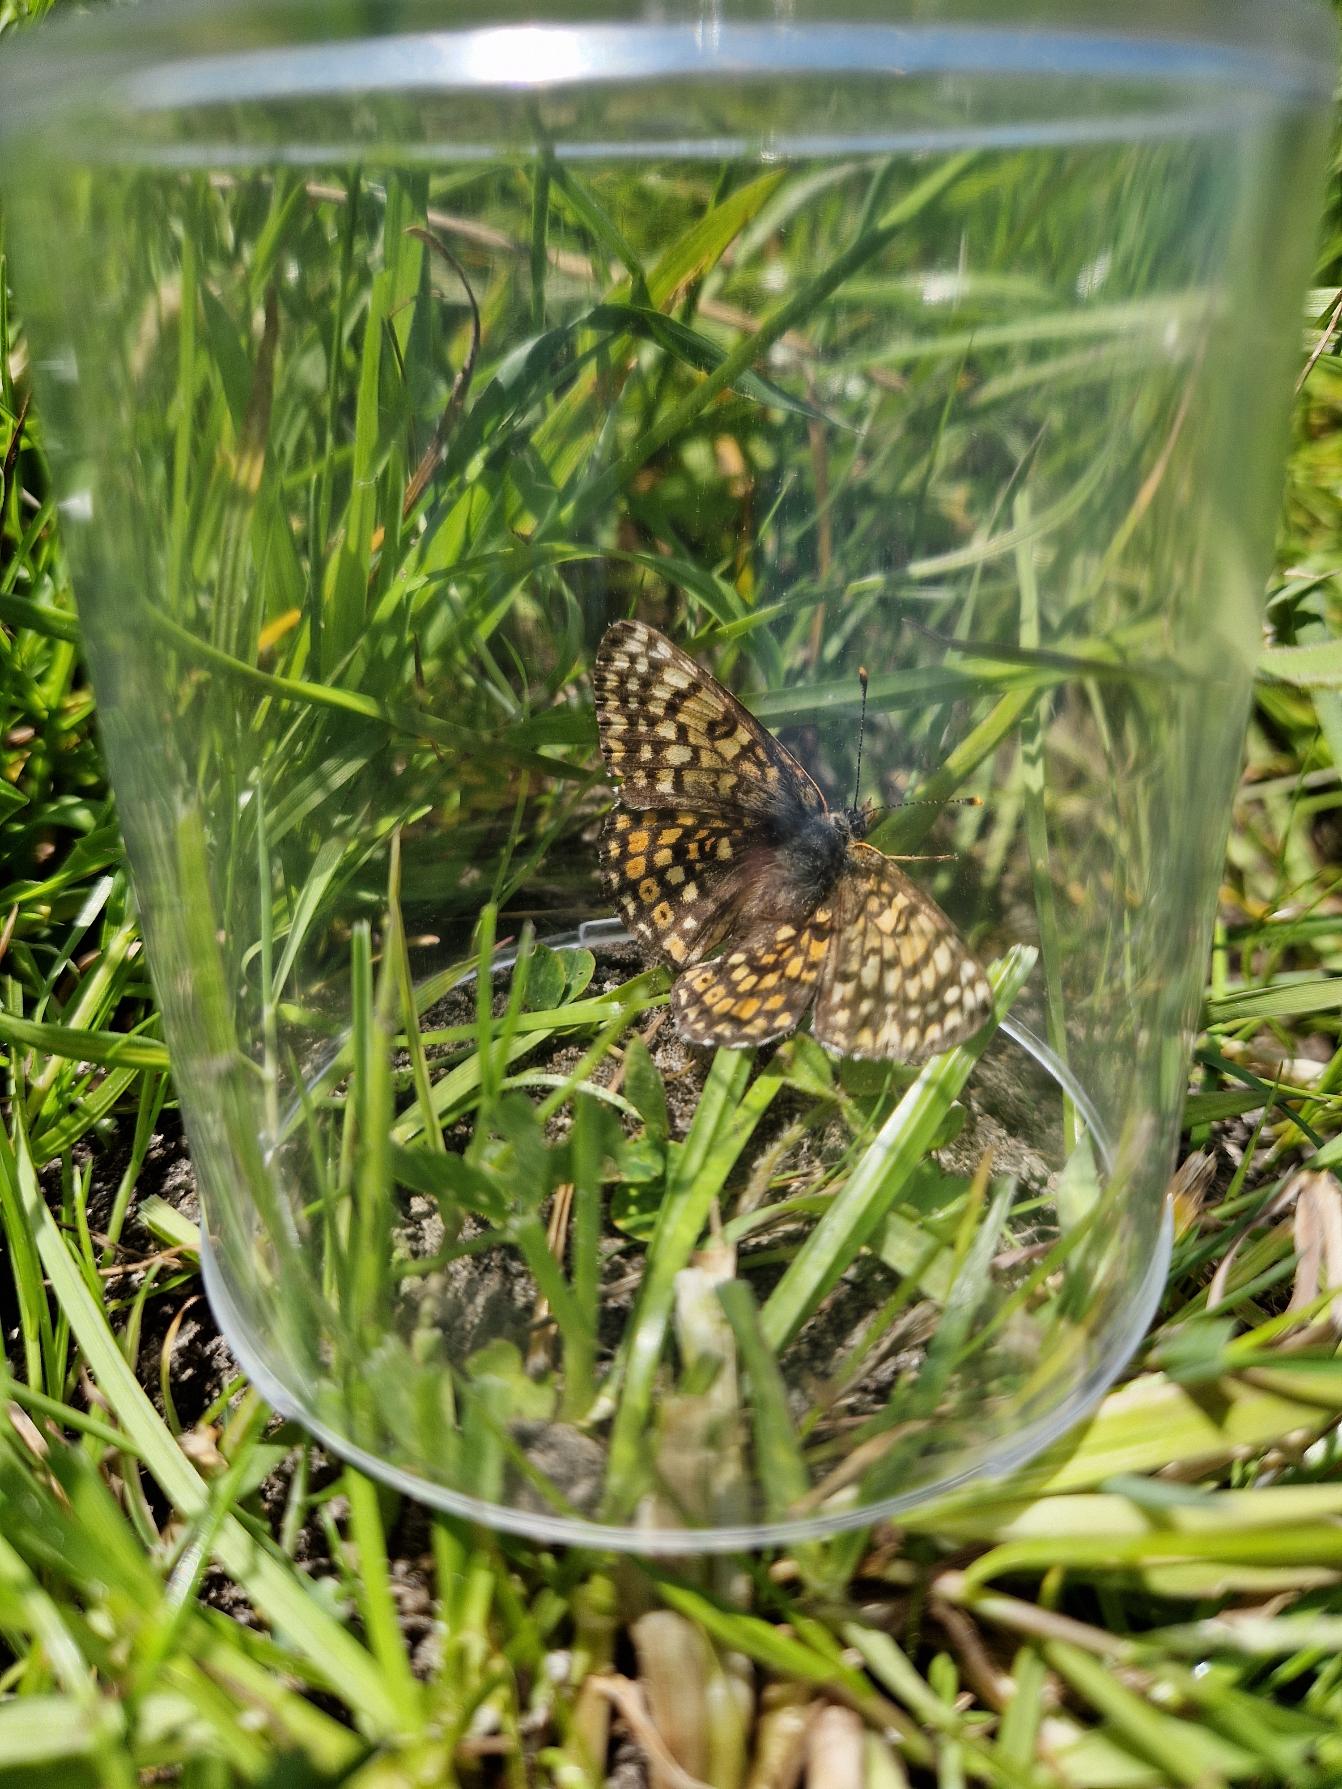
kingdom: Animalia
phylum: Arthropoda
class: Insecta
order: Lepidoptera
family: Nymphalidae
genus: Melitaea
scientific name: Melitaea cinxia
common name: Okkergul pletvinge
